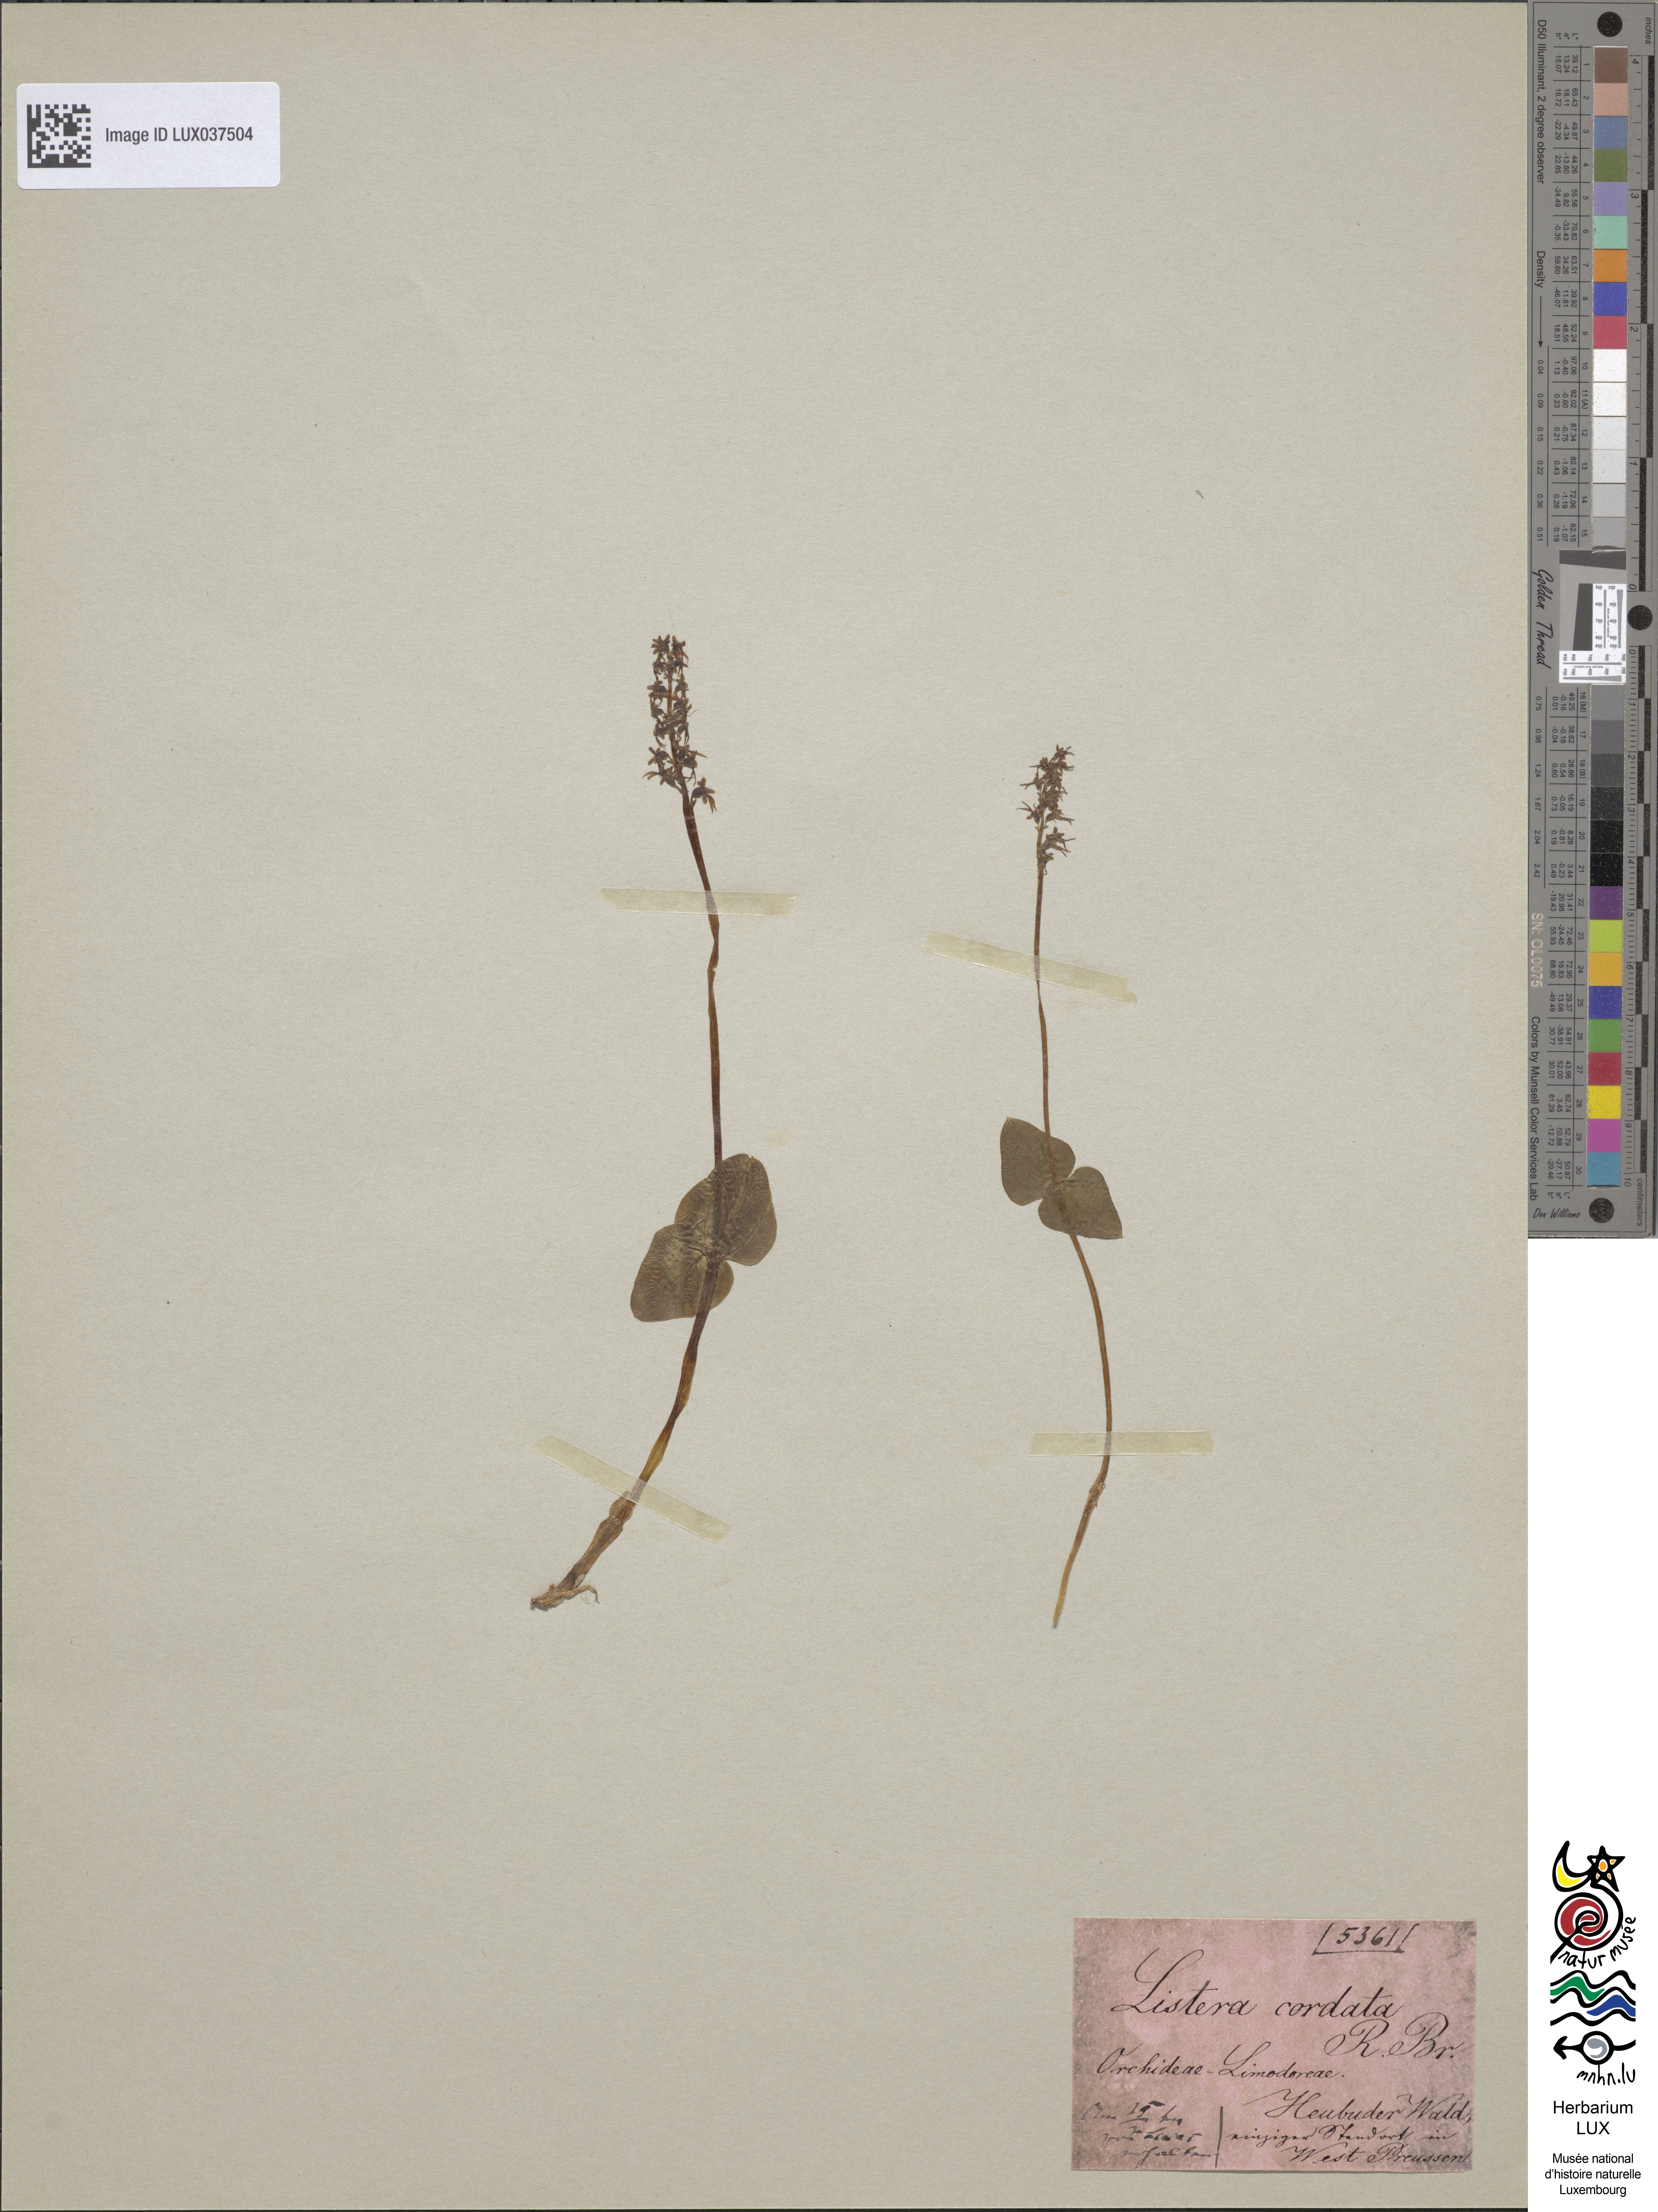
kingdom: Plantae
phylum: Tracheophyta
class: Liliopsida
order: Asparagales
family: Orchidaceae
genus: Neottia
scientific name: Neottia cordata
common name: Lesser twayblade
